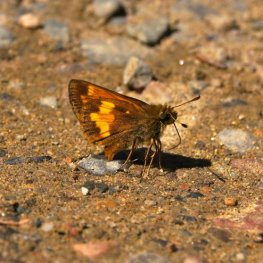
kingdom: Animalia
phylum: Arthropoda
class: Insecta
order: Lepidoptera
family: Hesperiidae
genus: Lon
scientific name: Lon hobomok
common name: Hobomok Skipper
